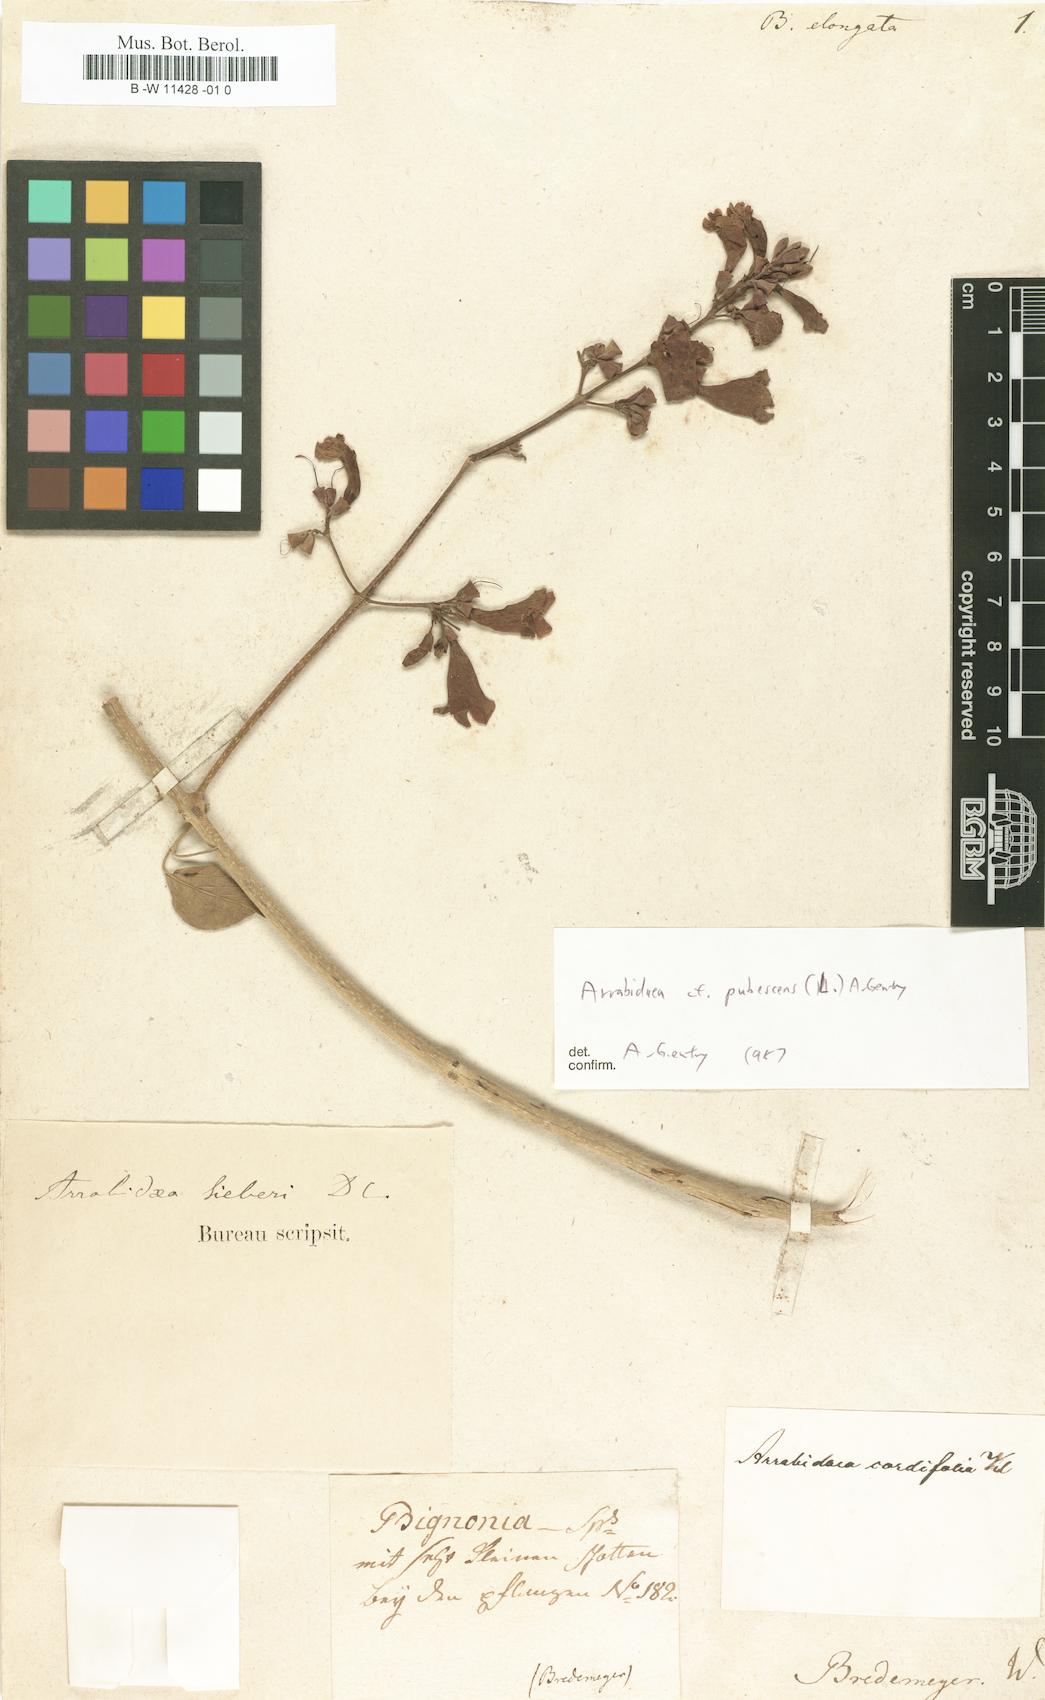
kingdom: Plantae
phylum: Tracheophyta
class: Magnoliopsida
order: Lamiales
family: Bignoniaceae
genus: Amphilophium
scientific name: Amphilophium elongatum
